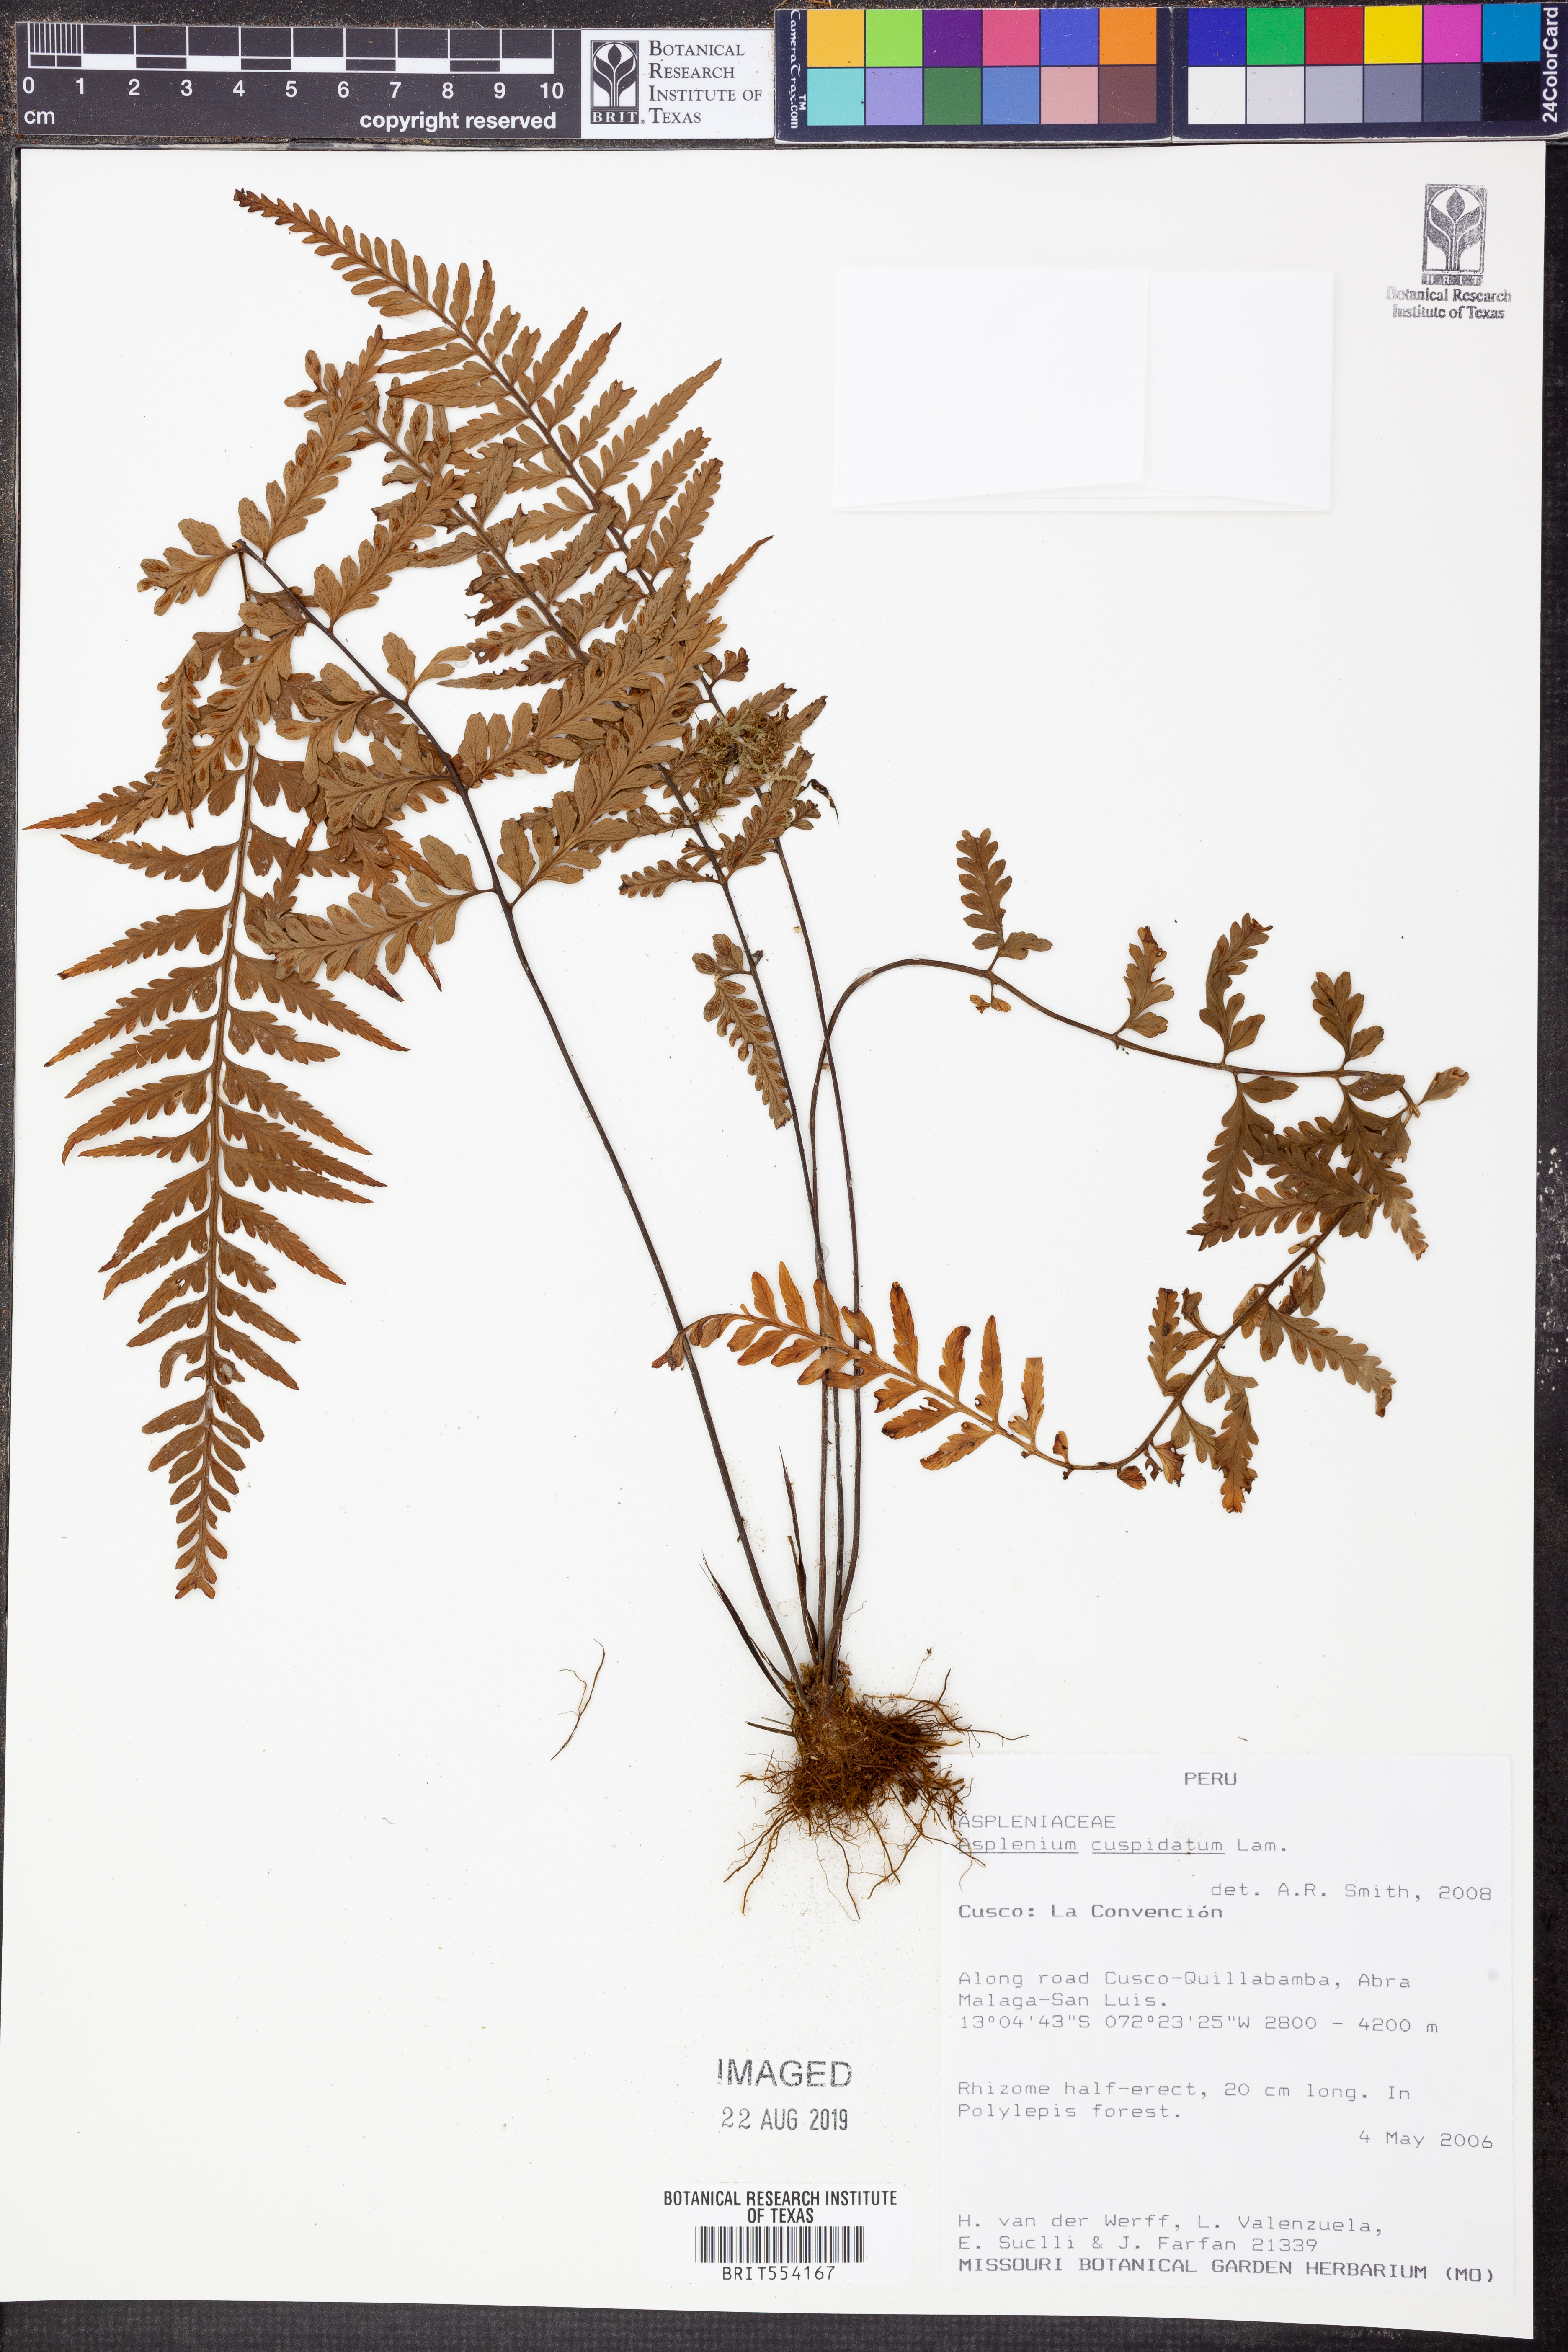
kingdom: Plantae
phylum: Tracheophyta
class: Polypodiopsida
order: Polypodiales
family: Aspleniaceae
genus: Asplenium
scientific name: Asplenium cuspidatum
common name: Eared spleenwort
